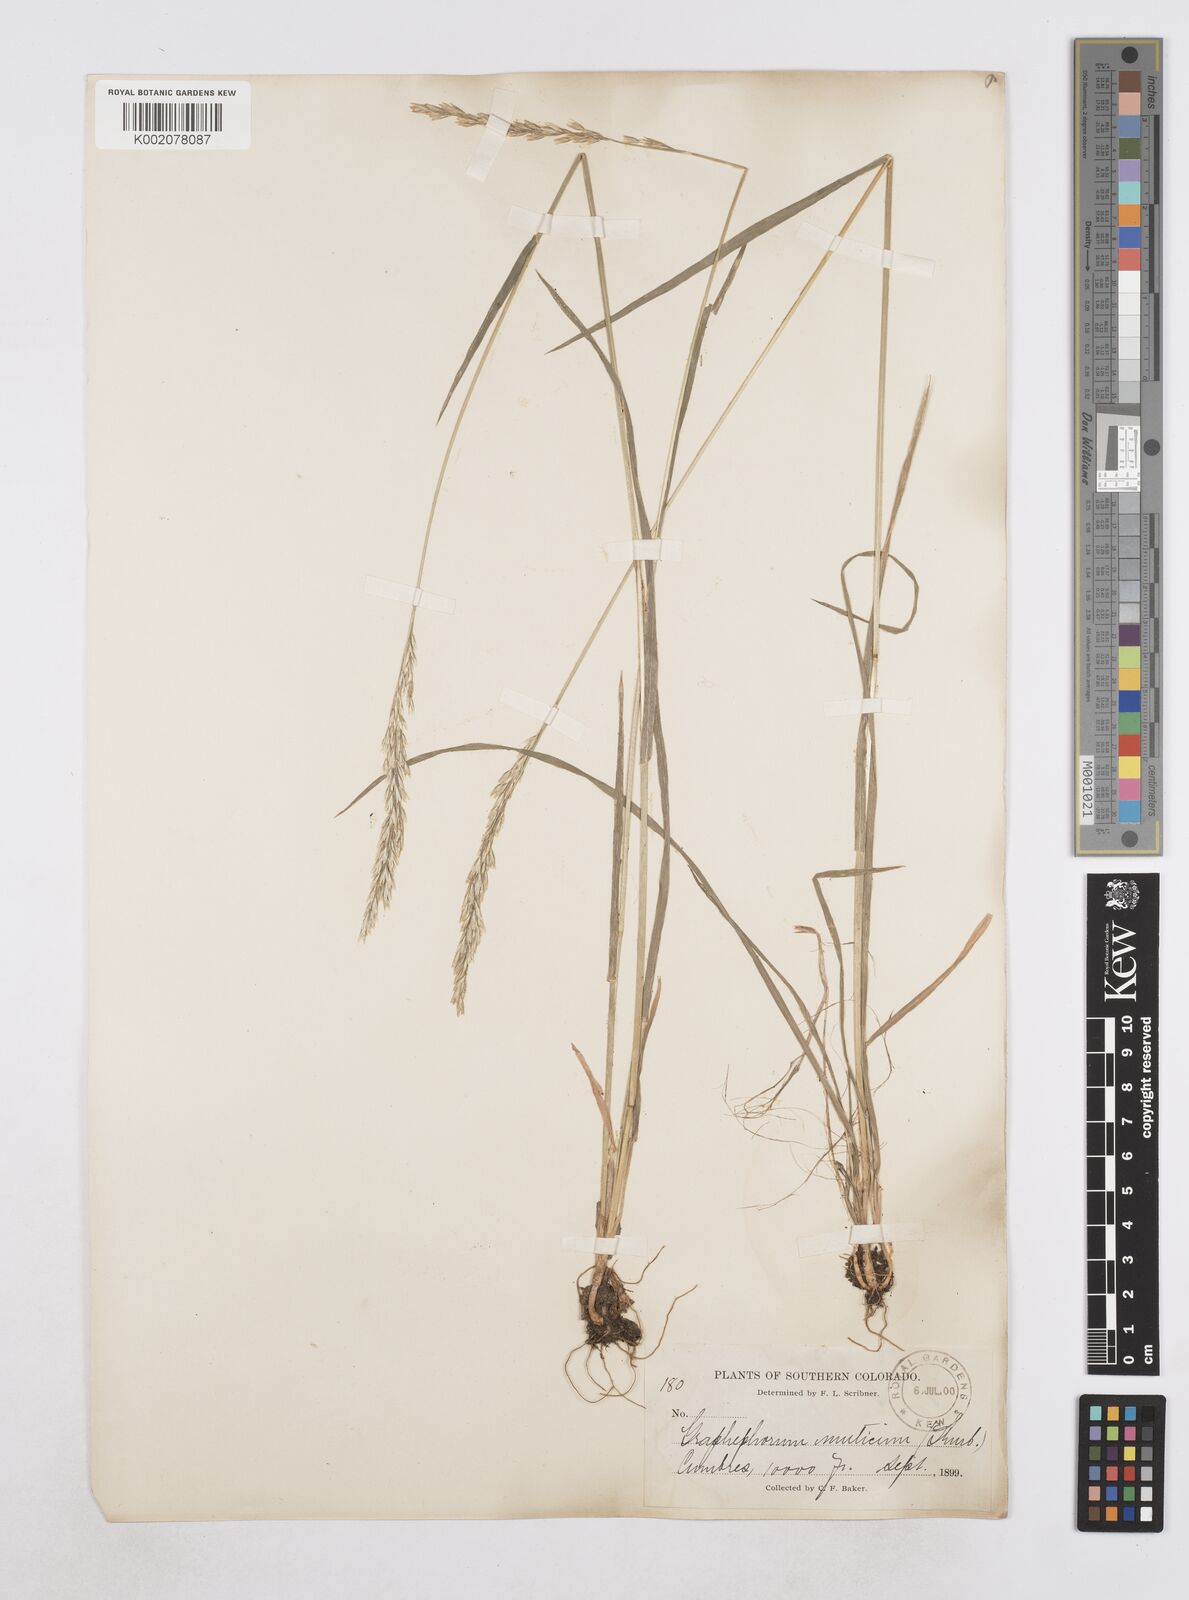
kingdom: Plantae
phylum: Tracheophyta
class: Liliopsida
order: Poales
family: Poaceae
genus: Poa
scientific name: Poa
